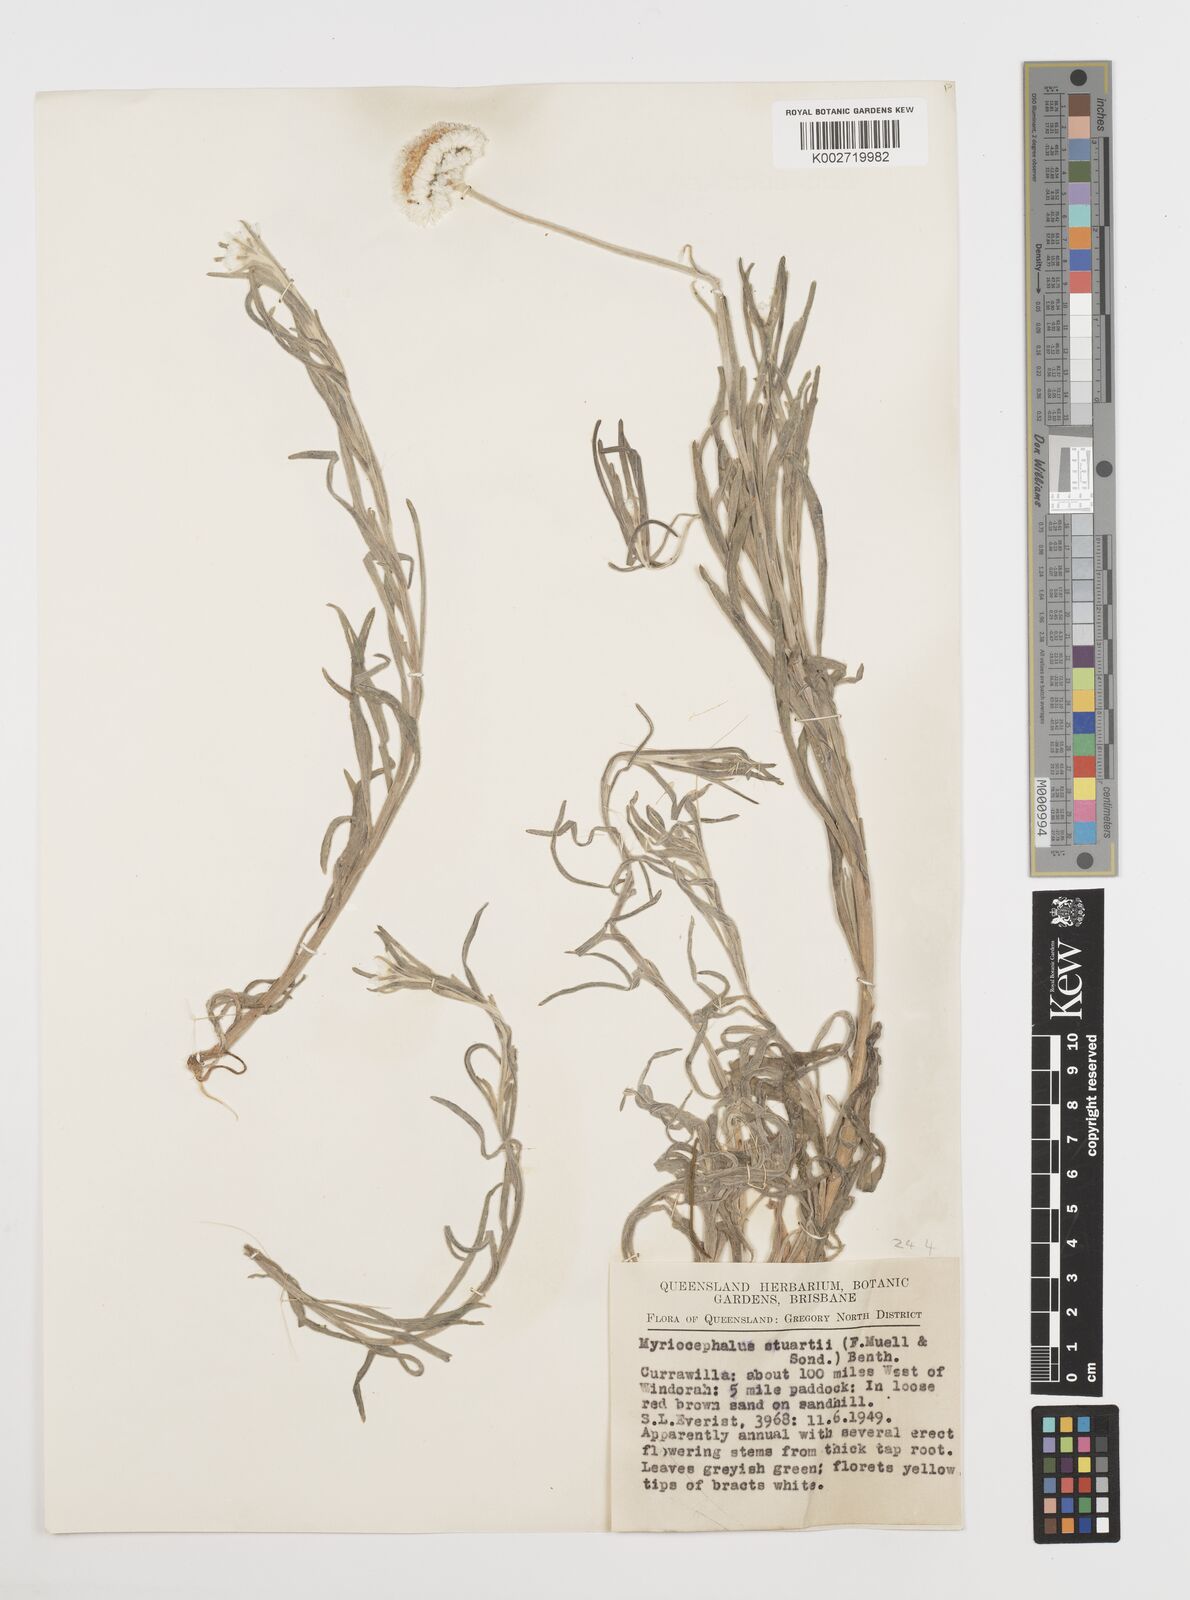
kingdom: Plantae
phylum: Tracheophyta
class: Magnoliopsida
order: Asterales
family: Asteraceae
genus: Polycalymma
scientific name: Polycalymma stuartii
